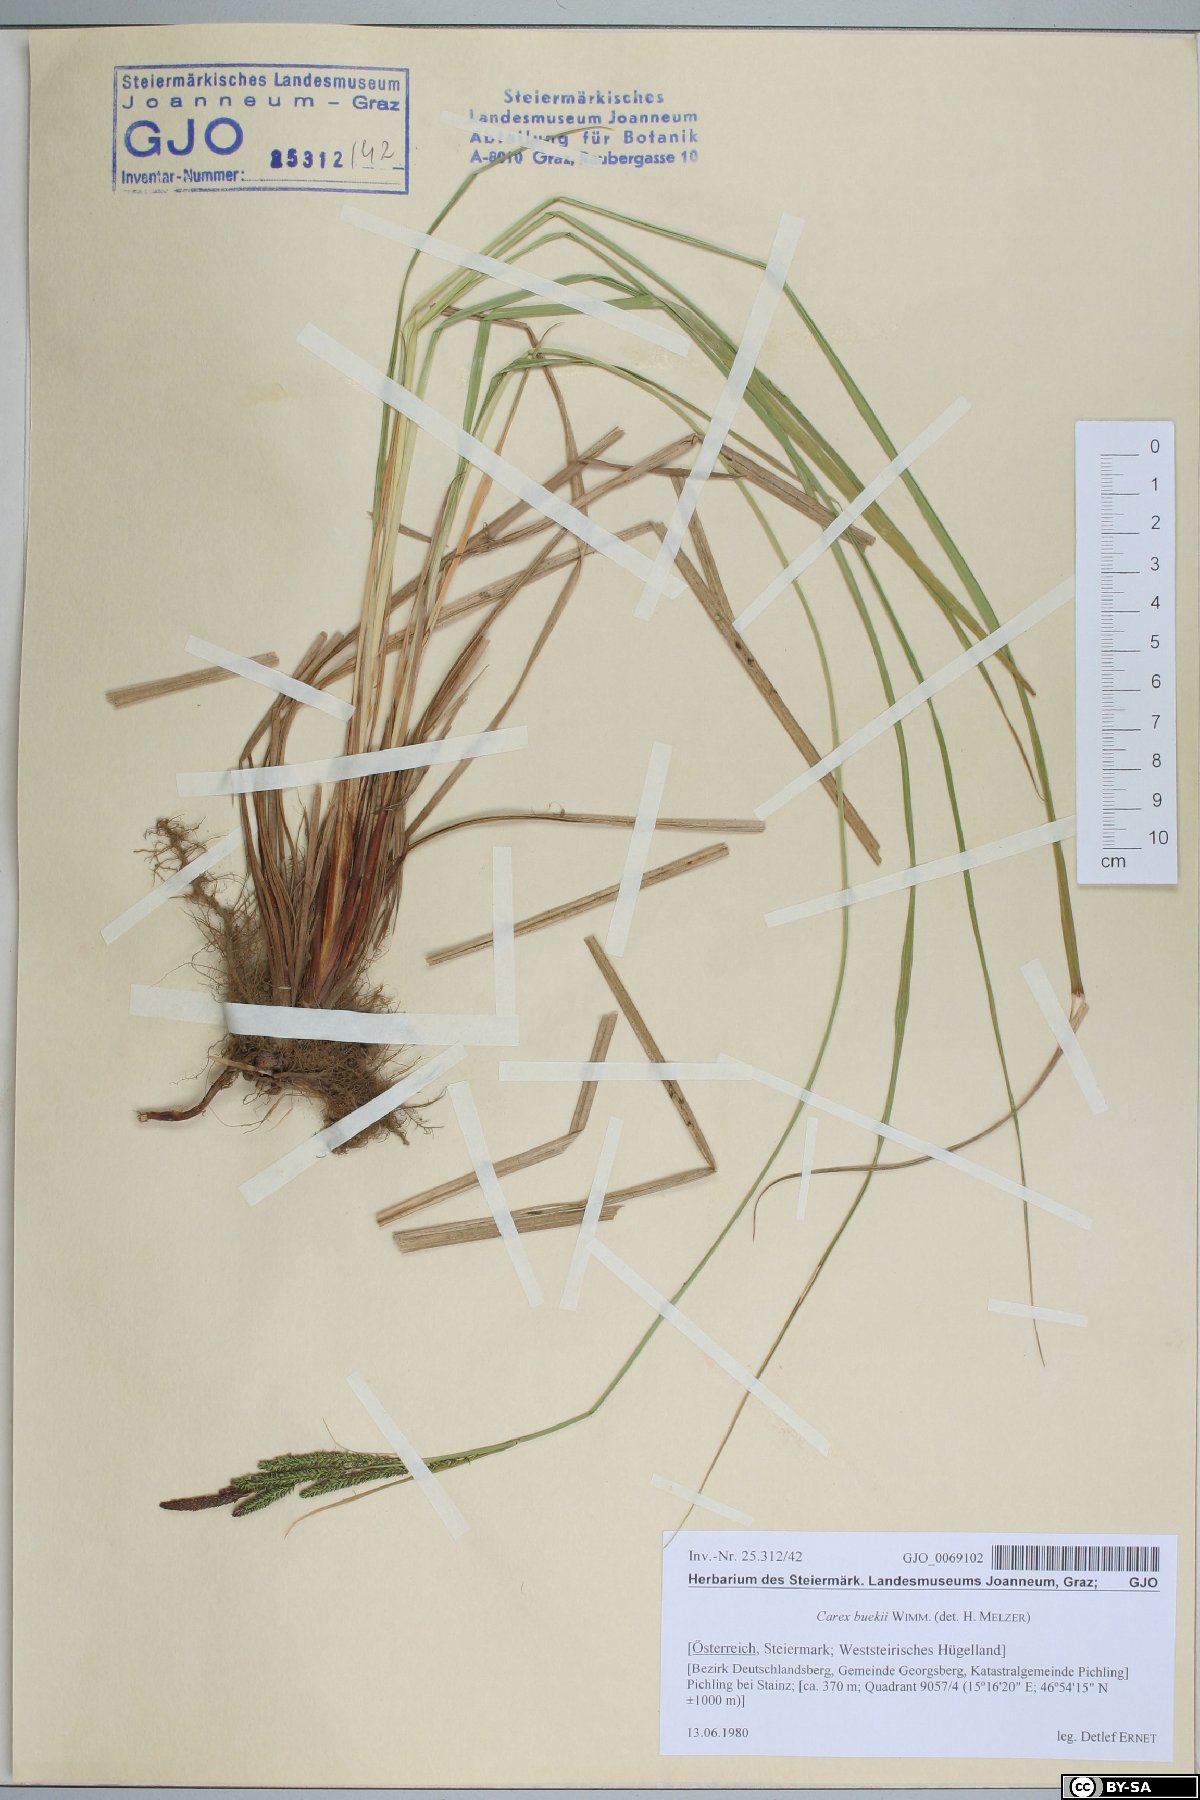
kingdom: Plantae
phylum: Tracheophyta
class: Liliopsida
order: Poales
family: Cyperaceae
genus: Carex
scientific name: Carex buekii
